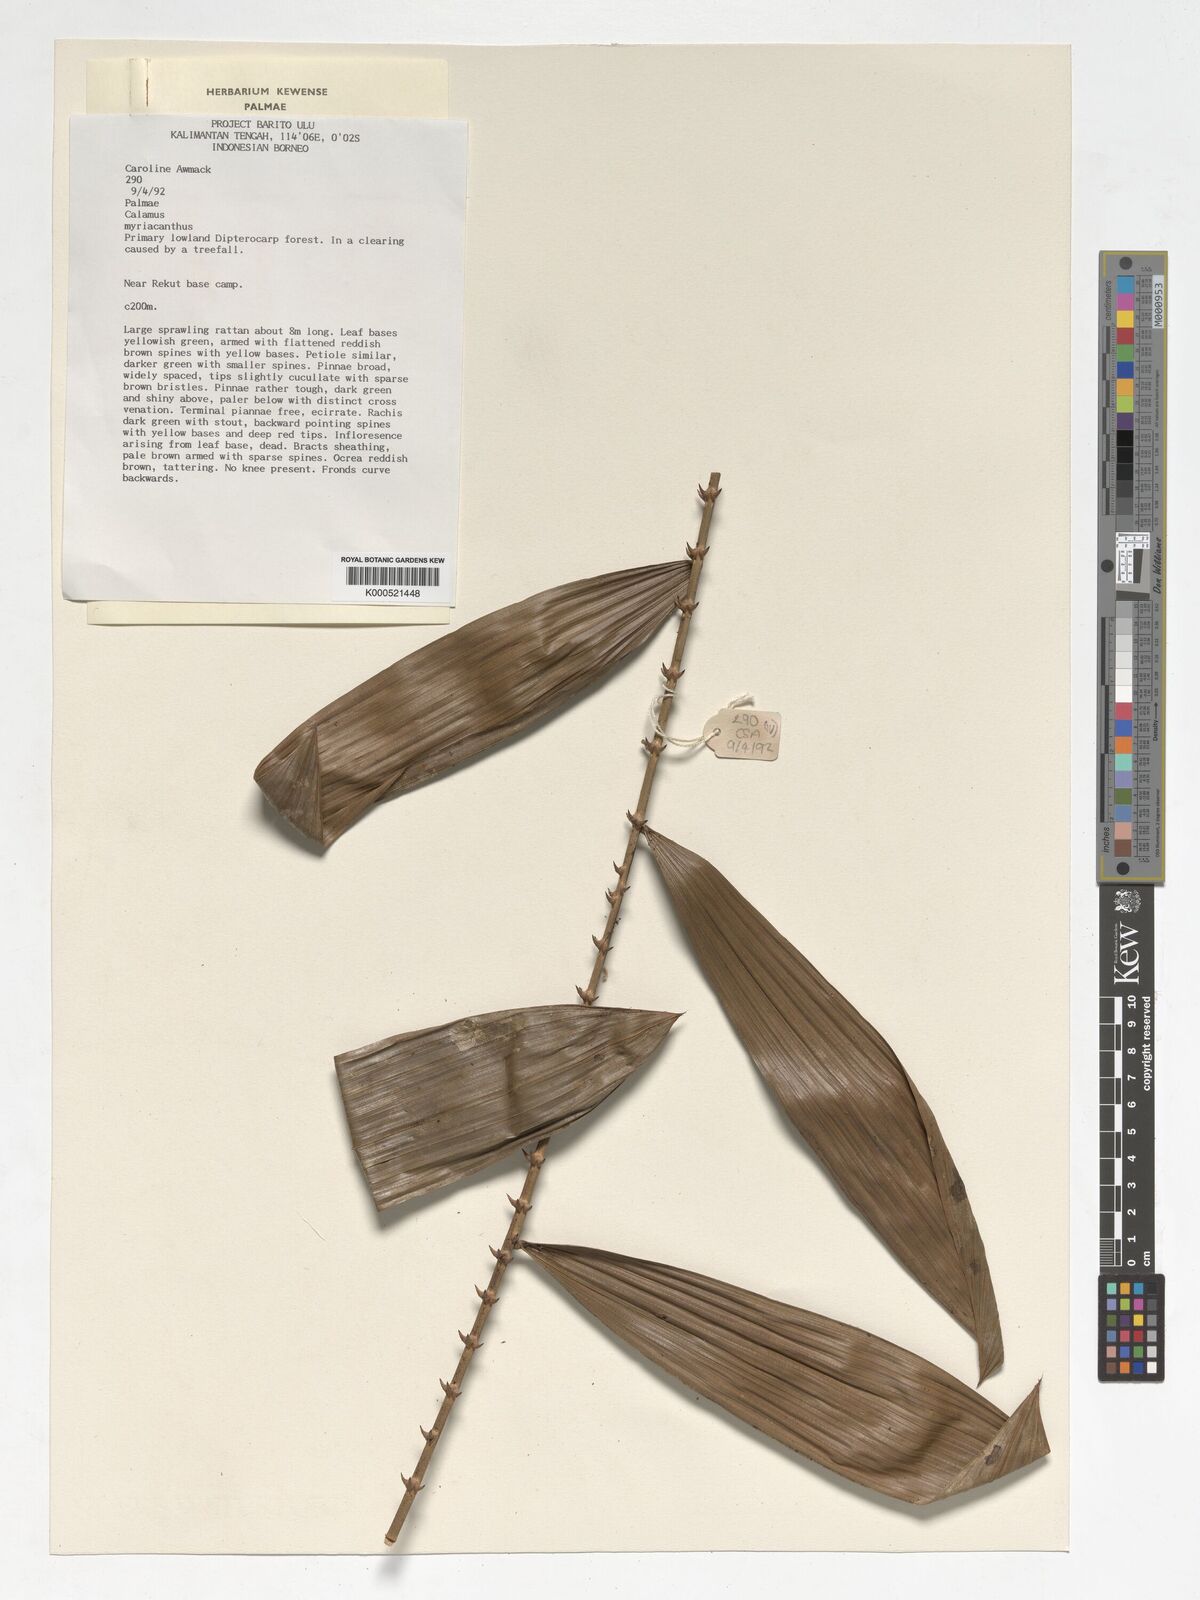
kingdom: Plantae
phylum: Tracheophyta
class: Liliopsida
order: Arecales
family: Arecaceae
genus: Calamus
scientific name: Calamus myriacanthus
